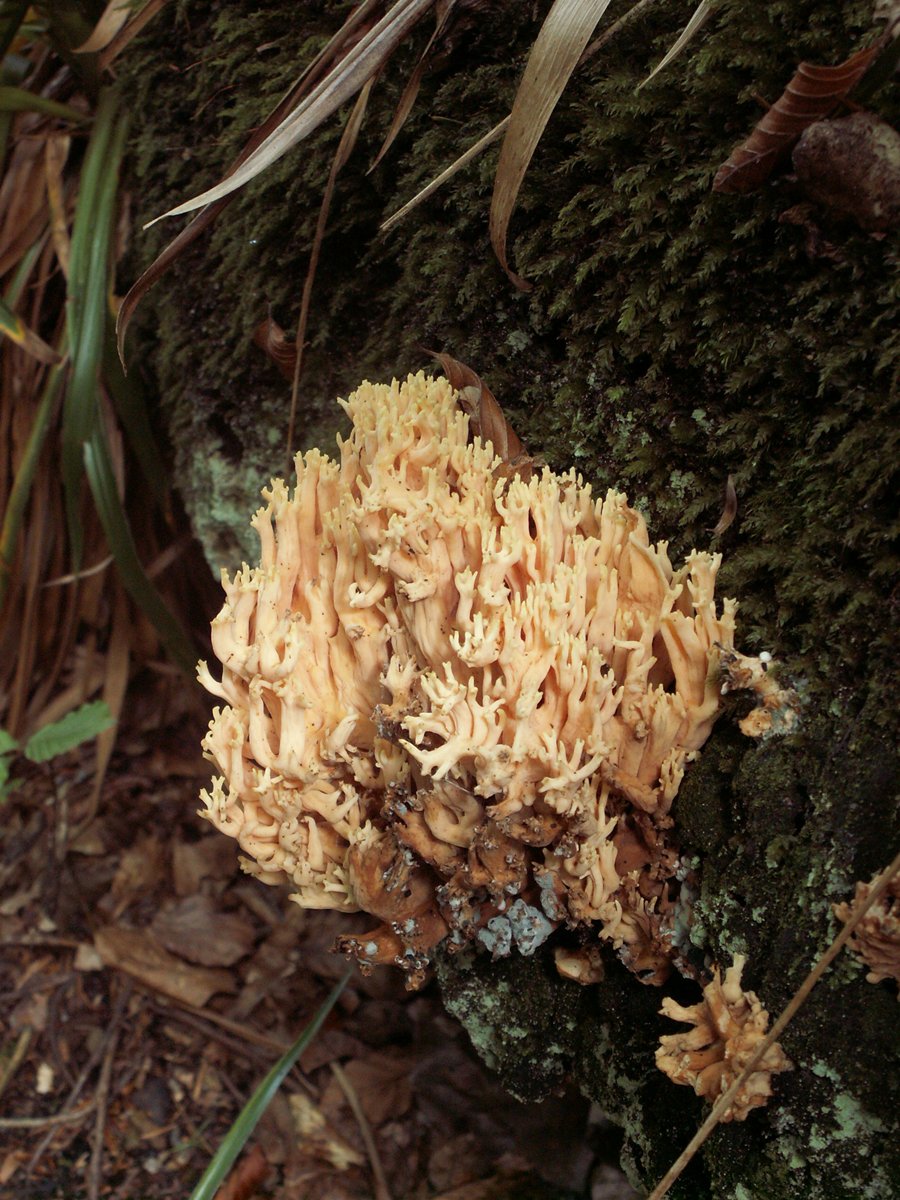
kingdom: Fungi
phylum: Basidiomycota
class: Agaricomycetes
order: Gomphales
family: Gomphaceae
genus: Ramaria
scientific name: Ramaria formosa
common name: smuk koralsvamp
